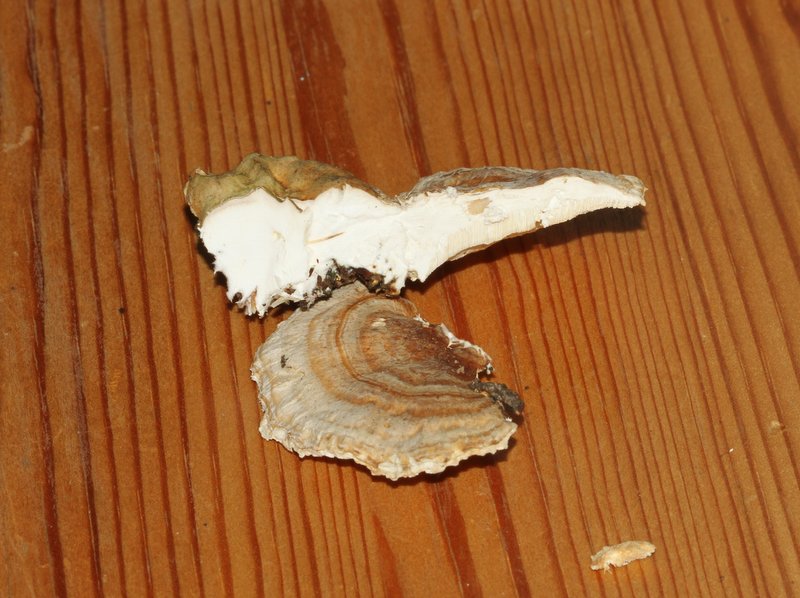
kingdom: Fungi
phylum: Basidiomycota
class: Agaricomycetes
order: Polyporales
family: Polyporaceae
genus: Trametes
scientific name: Trametes ochracea
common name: bæltet læderporesvamp
